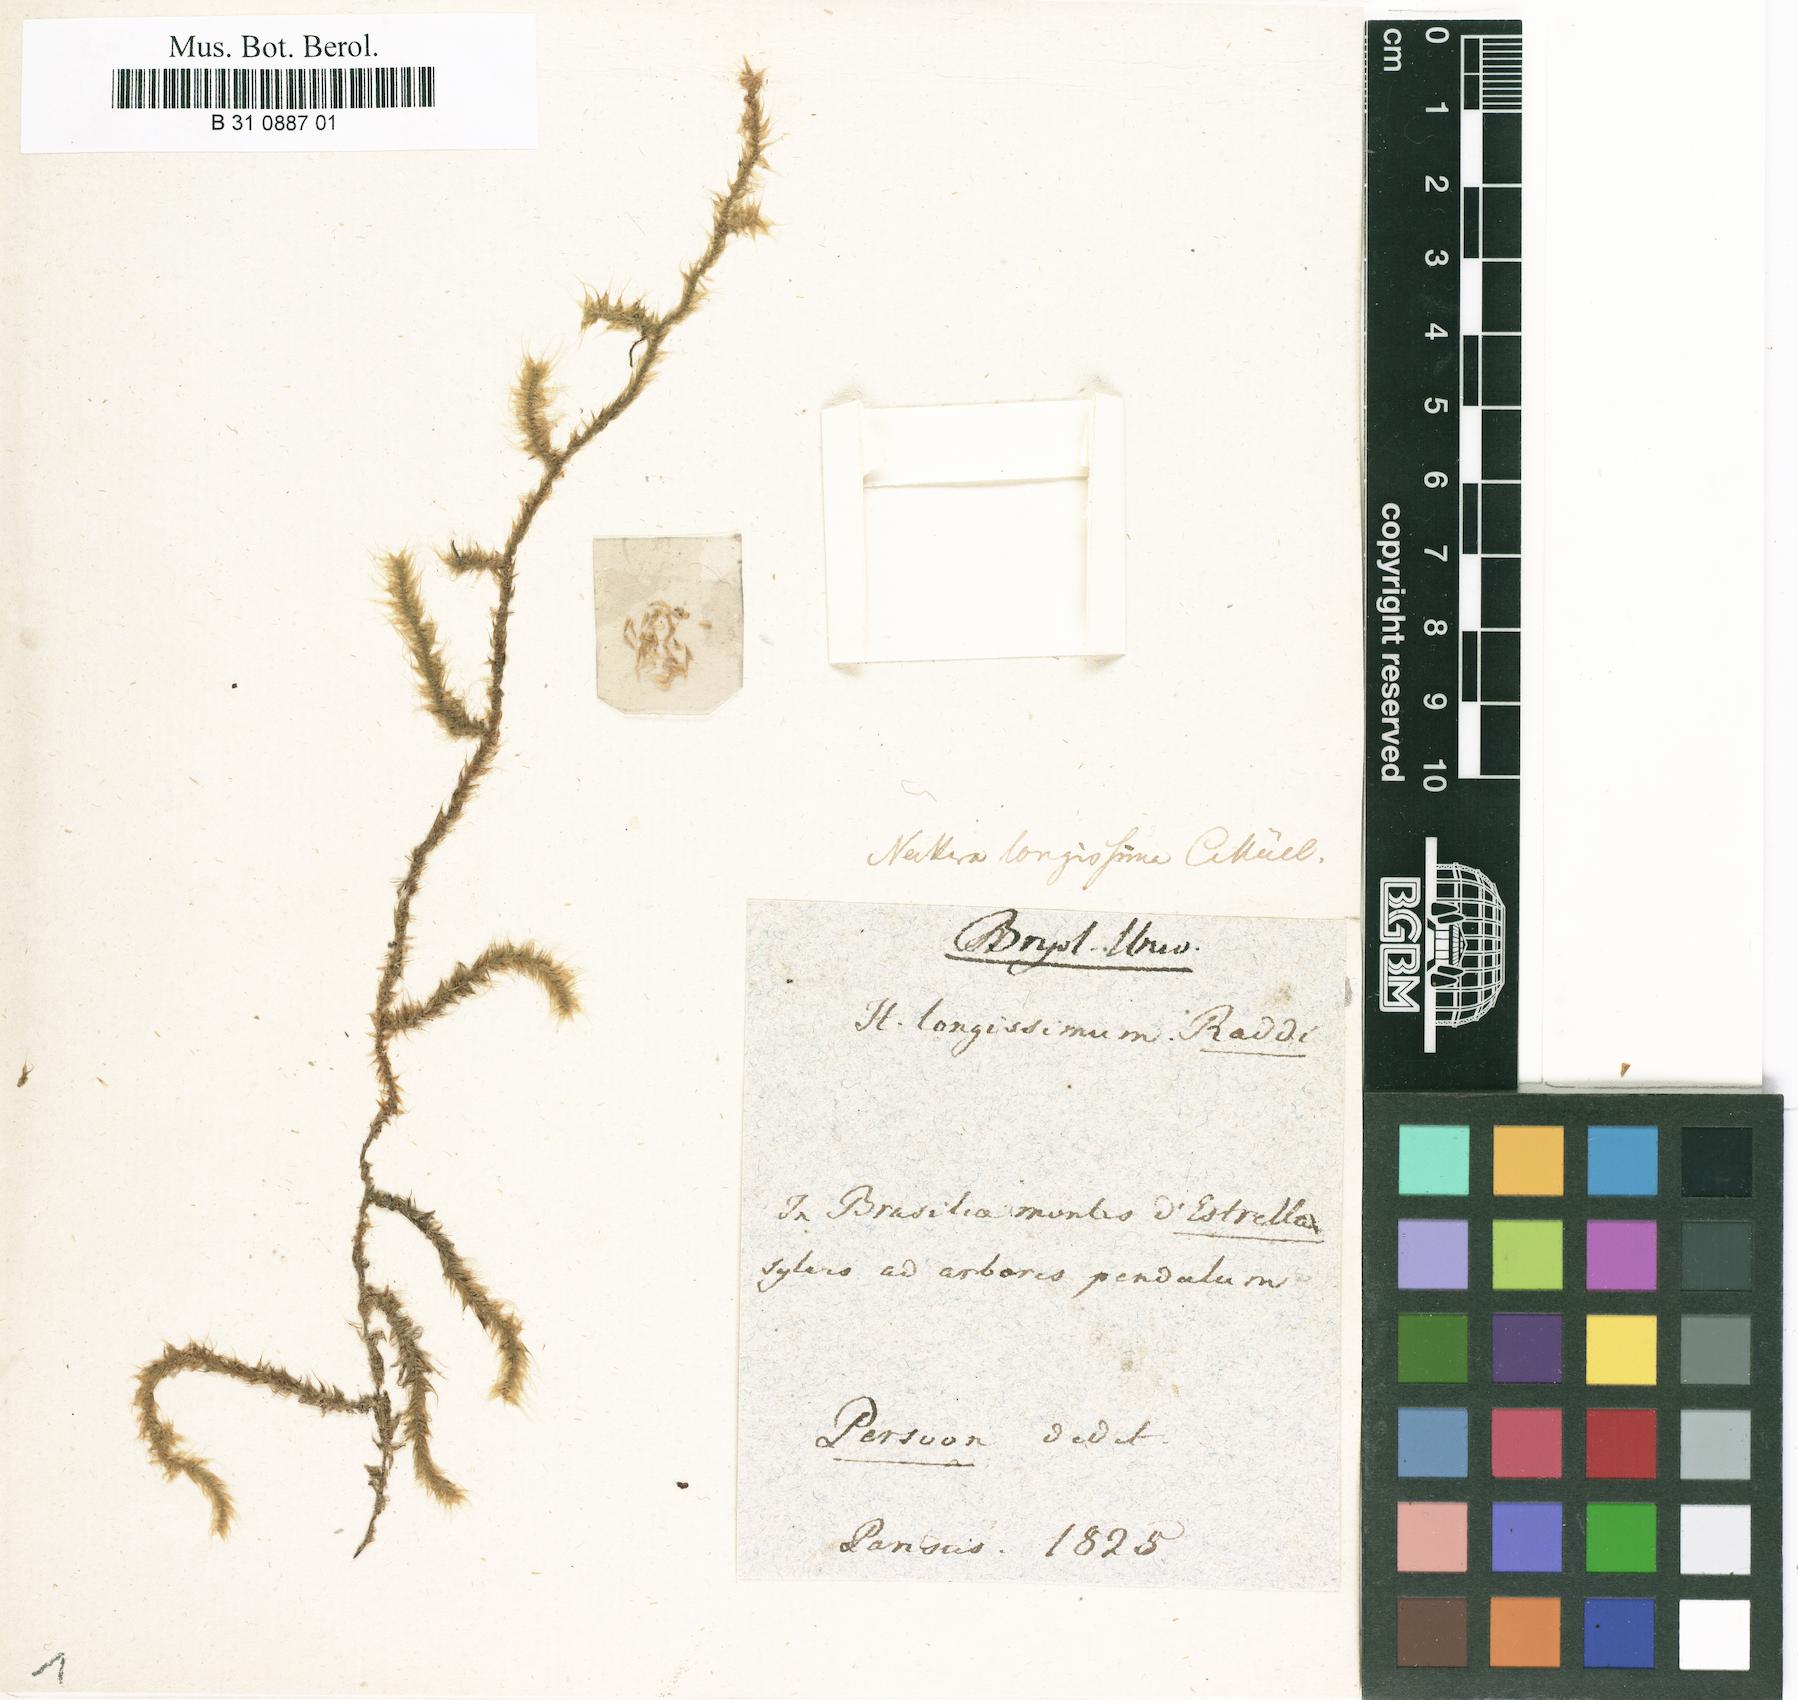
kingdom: Plantae
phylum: Bryophyta
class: Bryopsida
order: Hypnales
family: Pterobryaceae
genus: Spiridentopsis
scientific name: Spiridentopsis longissima
